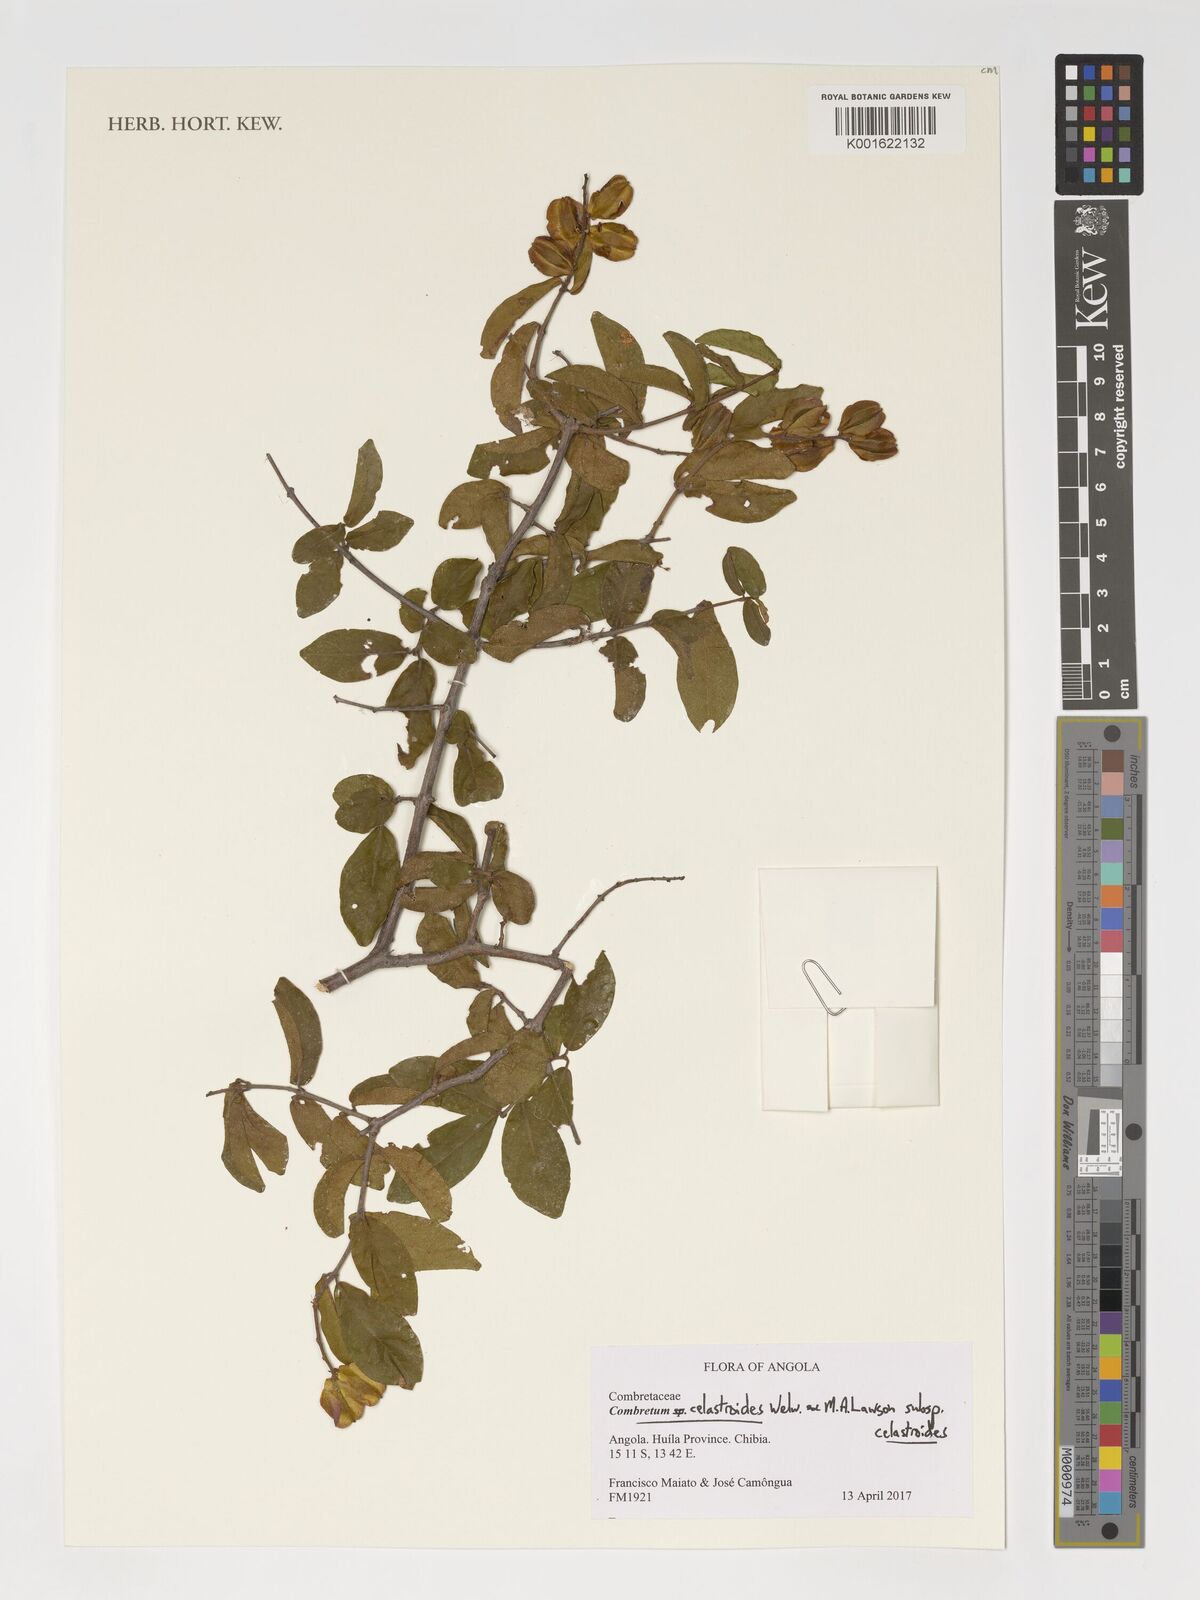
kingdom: Plantae
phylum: Tracheophyta
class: Magnoliopsida
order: Myrtales
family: Combretaceae
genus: Combretum
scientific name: Combretum celastroides
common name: Jesse-bush combretum
